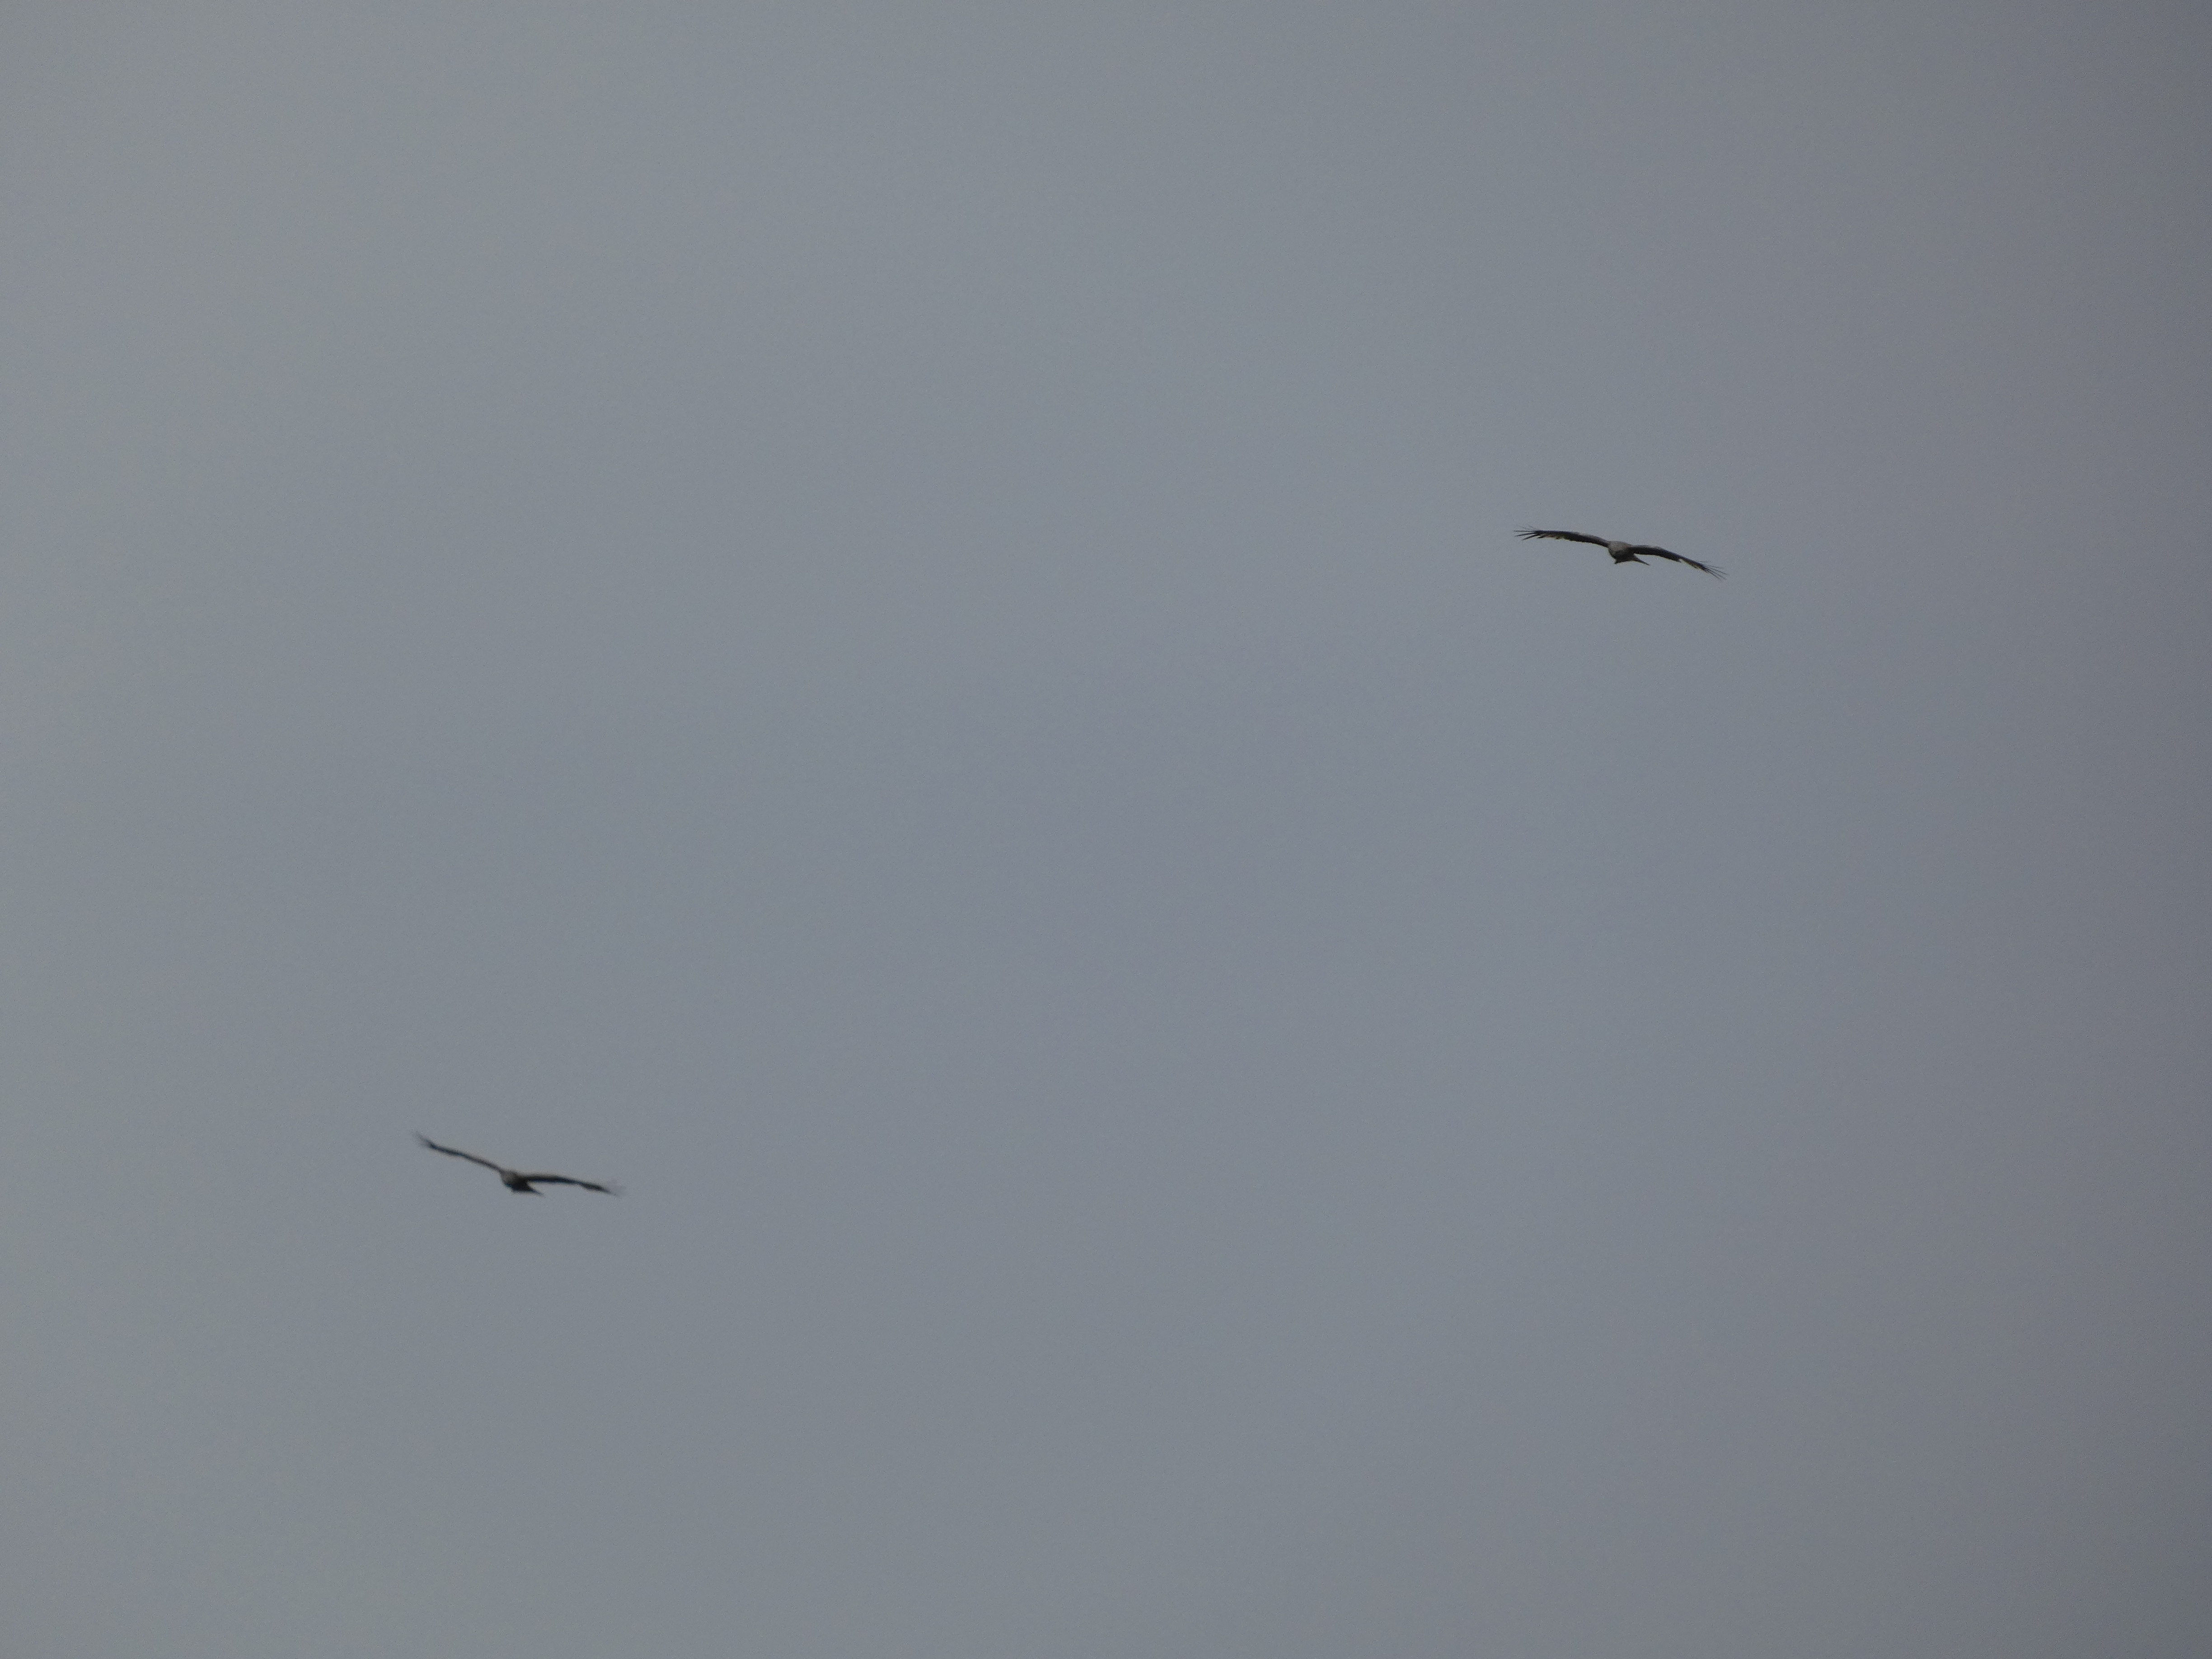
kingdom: Animalia
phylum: Chordata
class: Aves
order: Accipitriformes
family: Accipitridae
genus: Milvus
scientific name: Milvus milvus
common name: Rød glente
